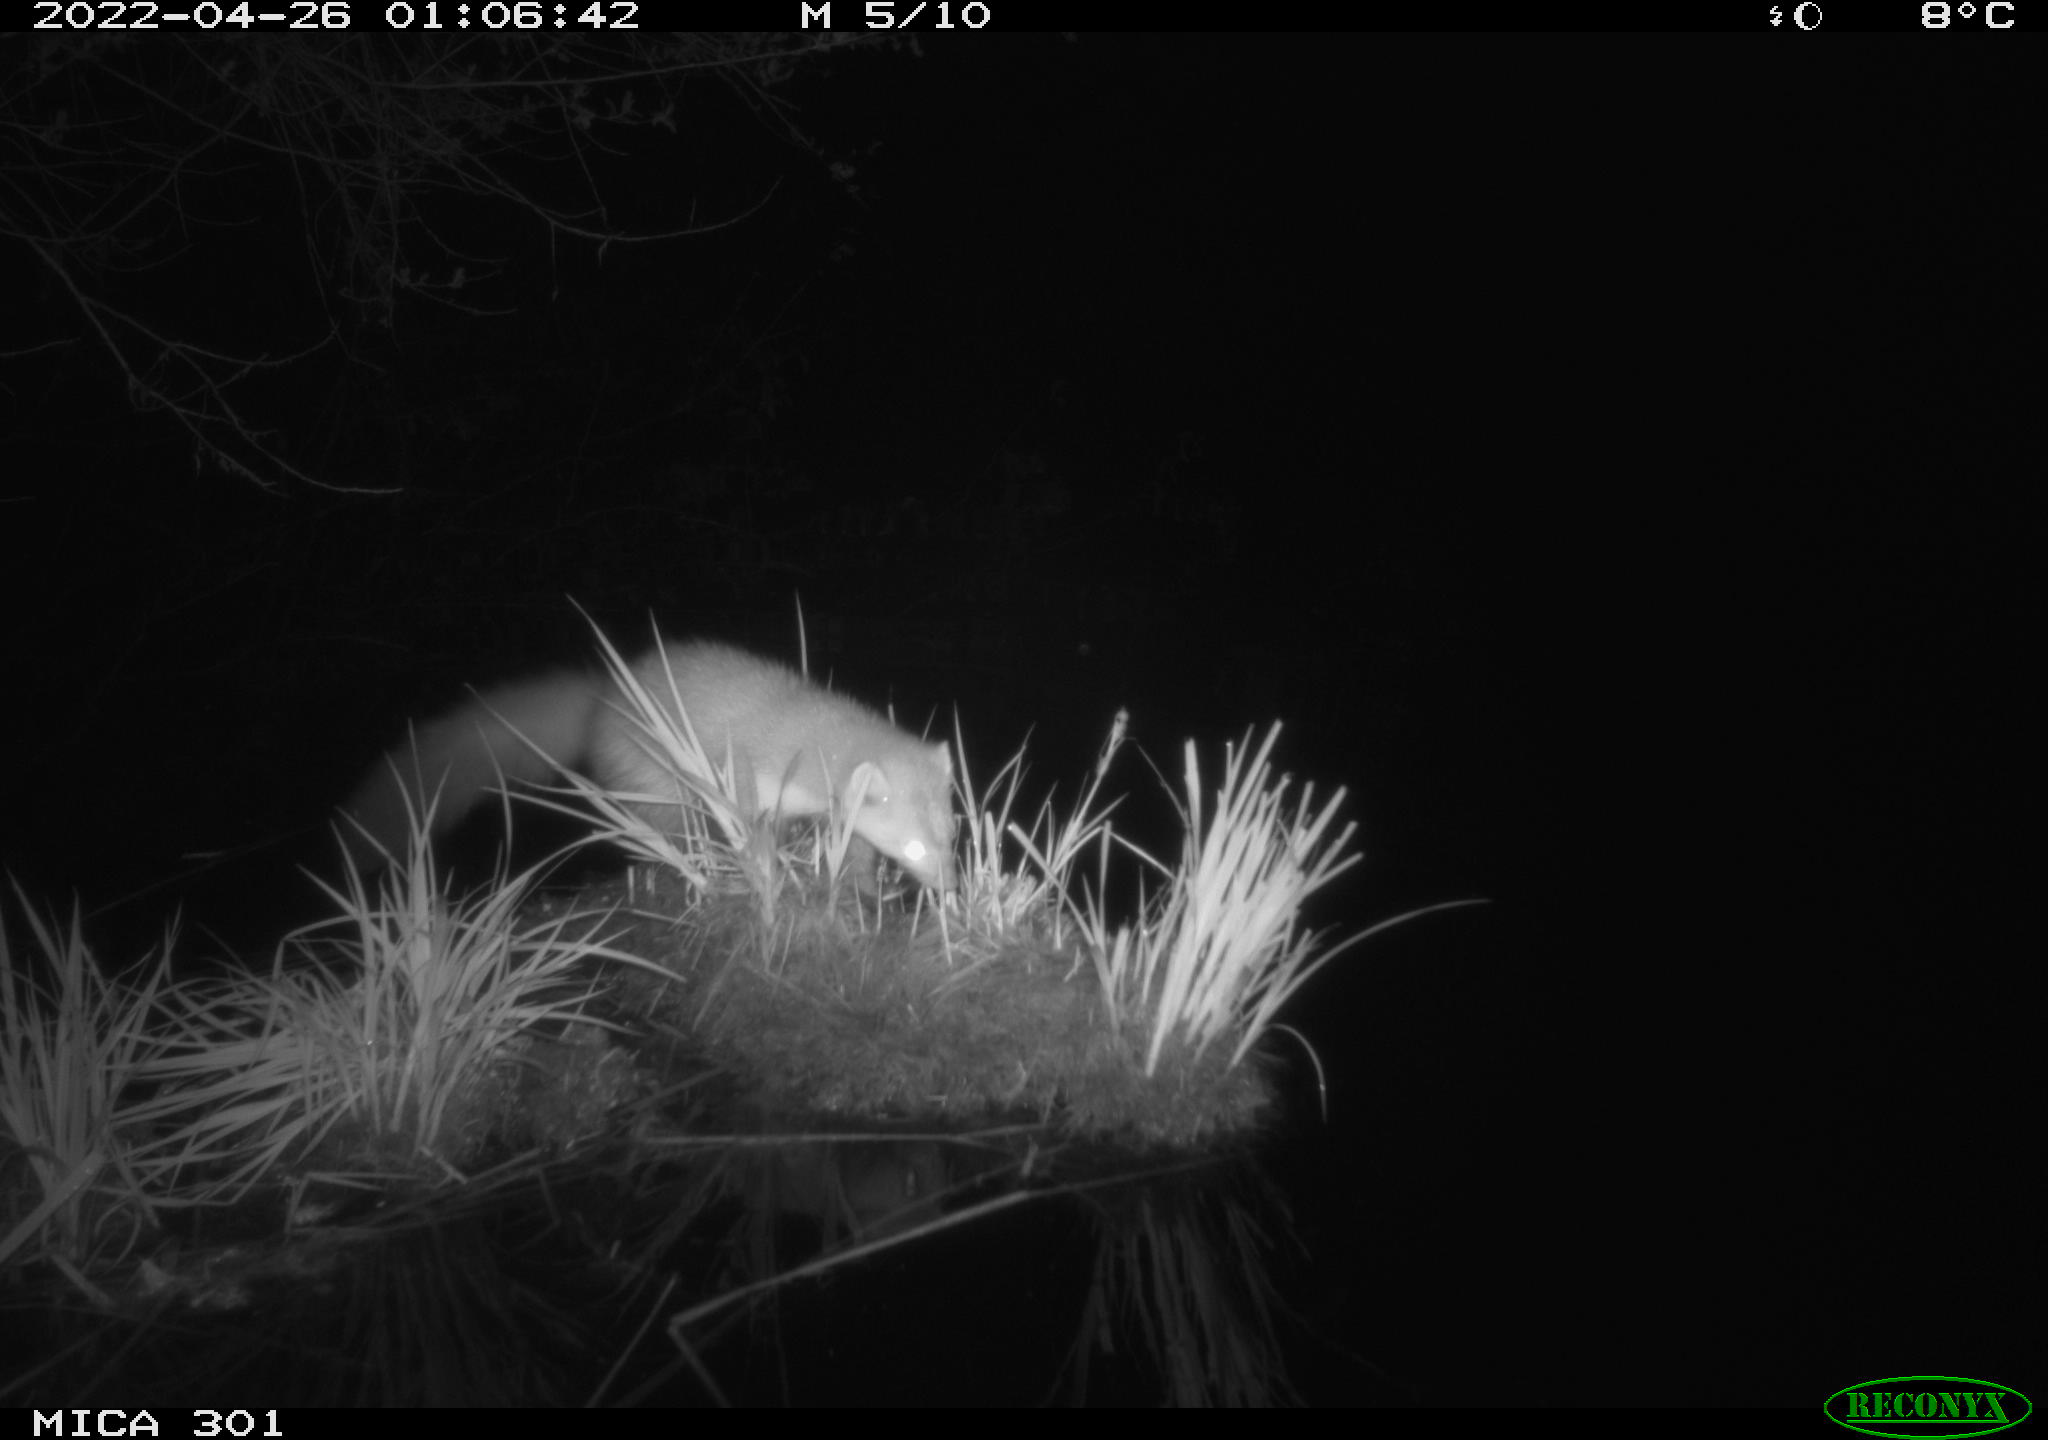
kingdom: Animalia
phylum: Chordata
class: Mammalia
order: Carnivora
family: Mustelidae
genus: Martes
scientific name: Martes foina
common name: Beech marten
